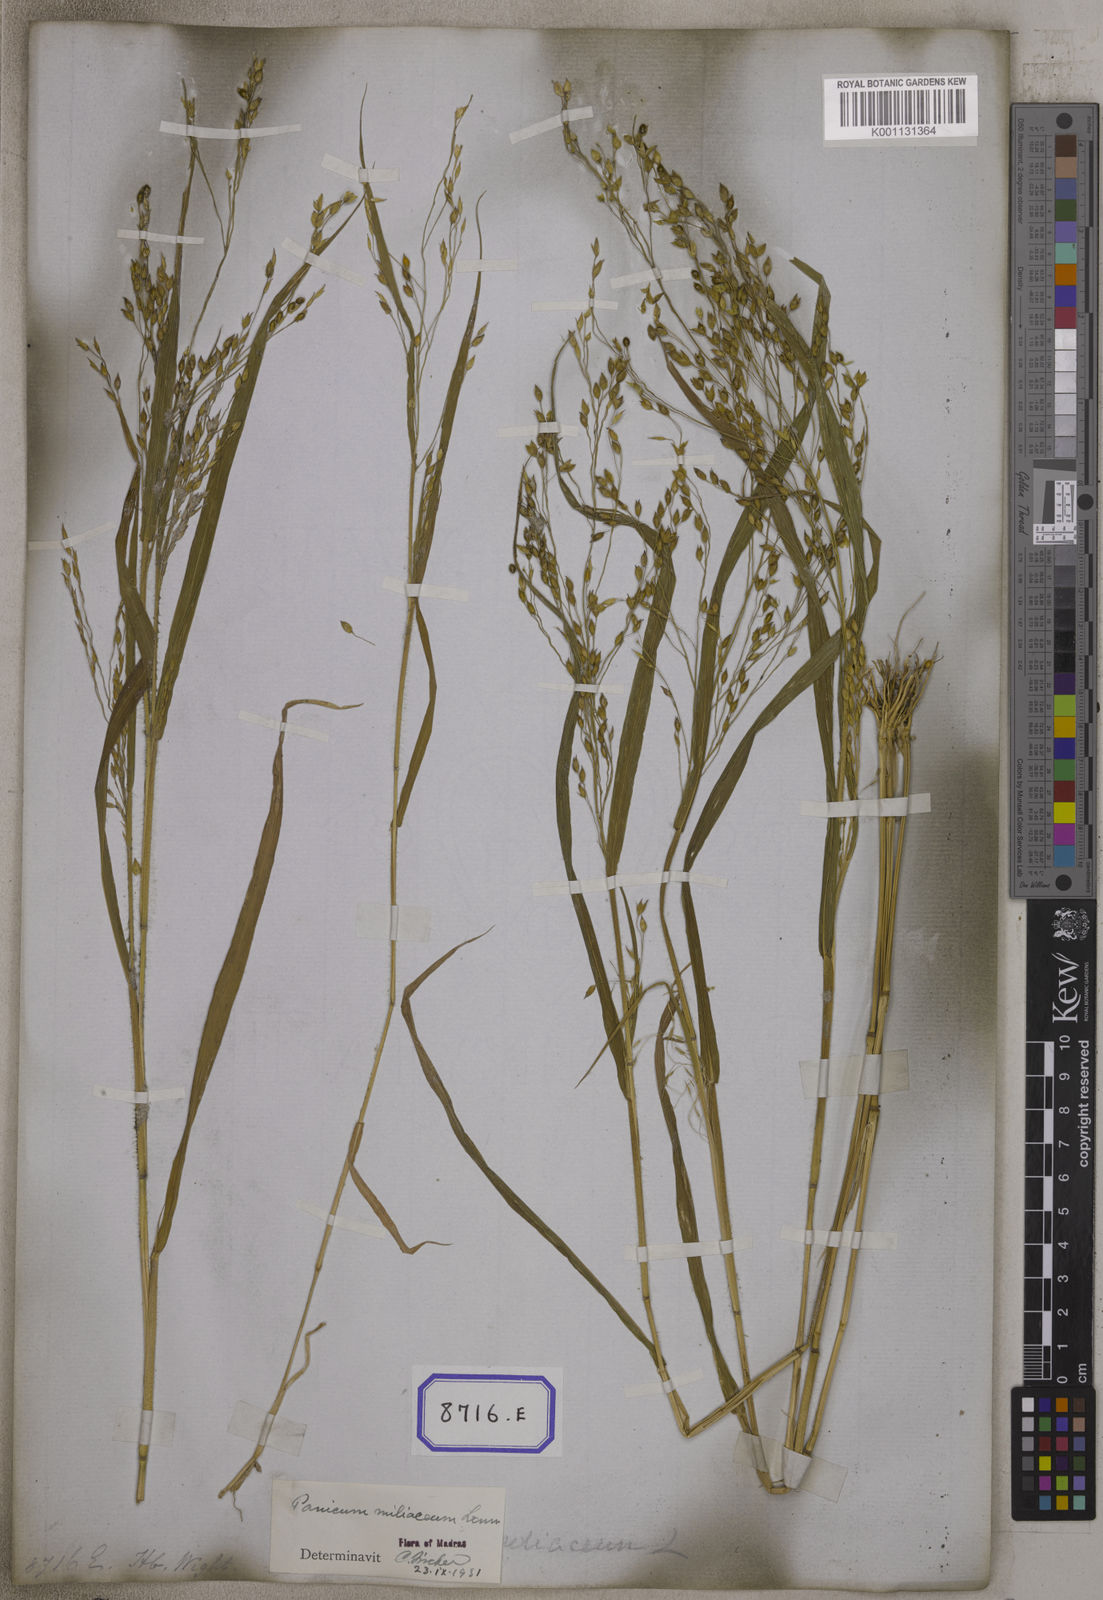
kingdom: Plantae
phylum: Tracheophyta
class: Liliopsida
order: Poales
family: Poaceae
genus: Panicum
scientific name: Panicum miliaceum
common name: Common millet
